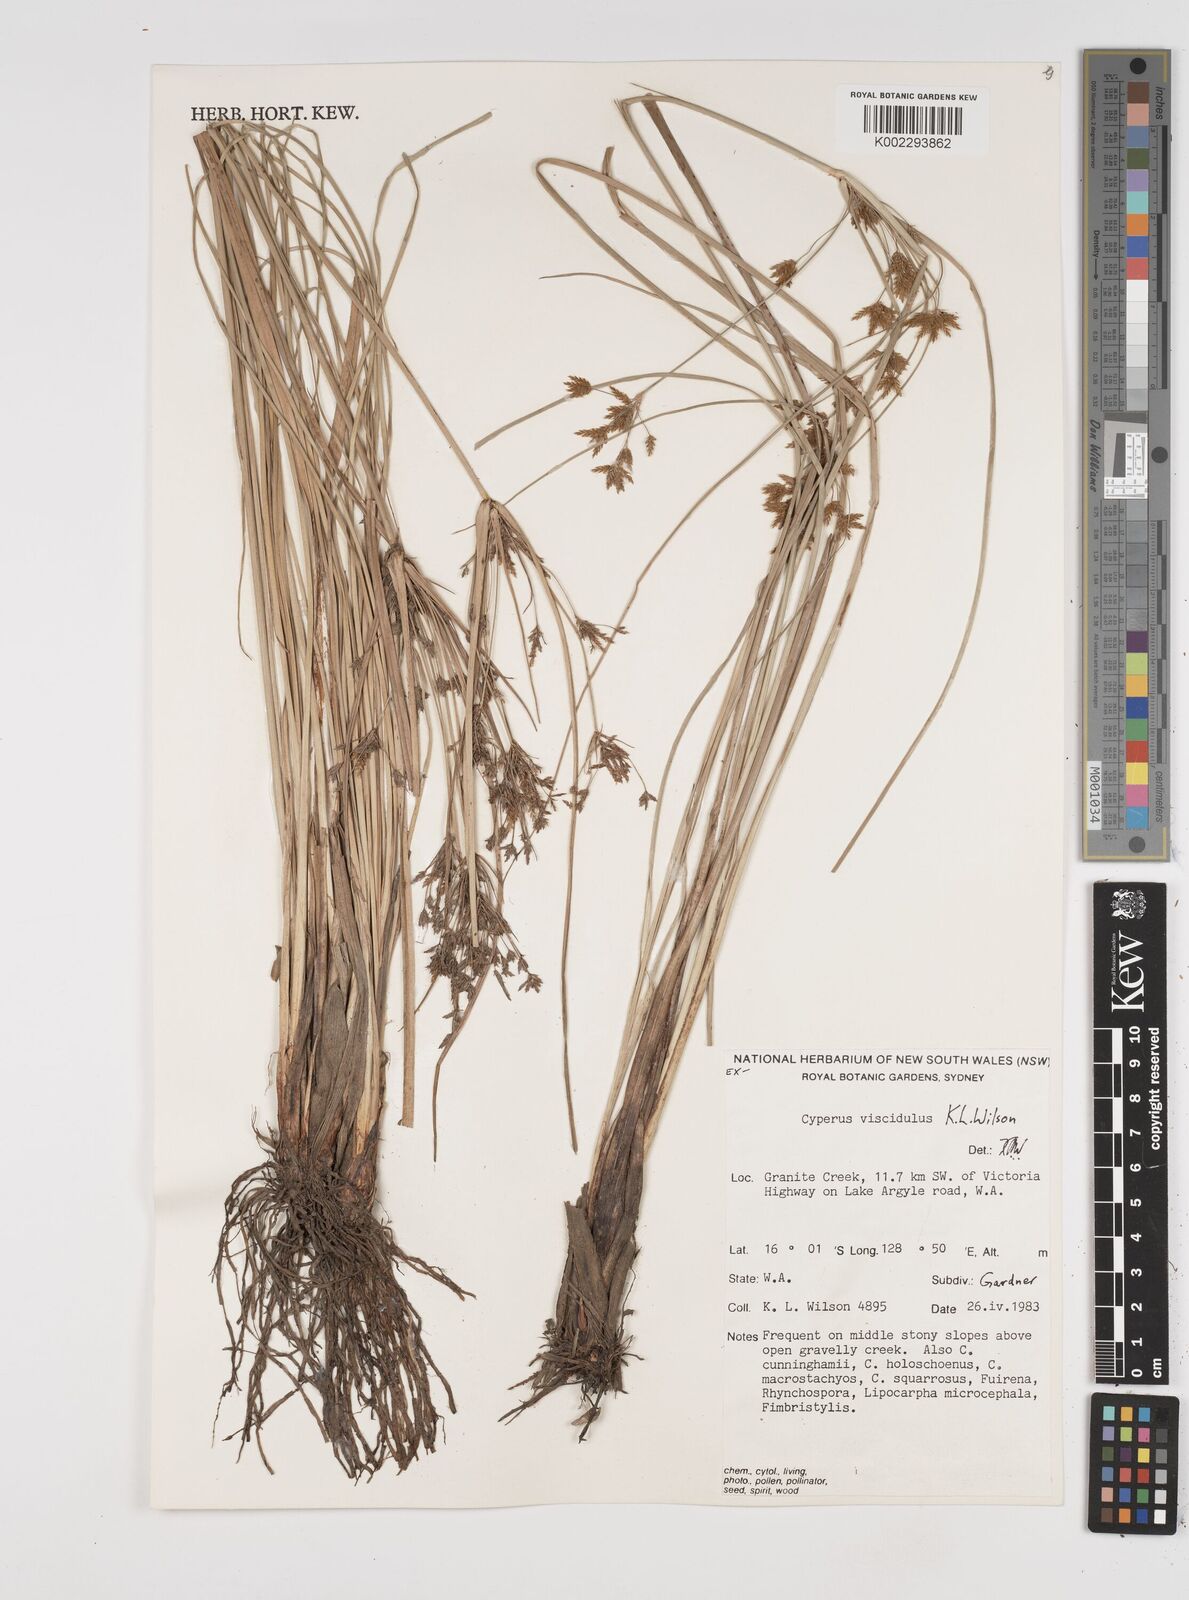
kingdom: Plantae
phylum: Tracheophyta
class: Liliopsida
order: Poales
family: Cyperaceae
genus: Cyperus
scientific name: Cyperus viscidulus
